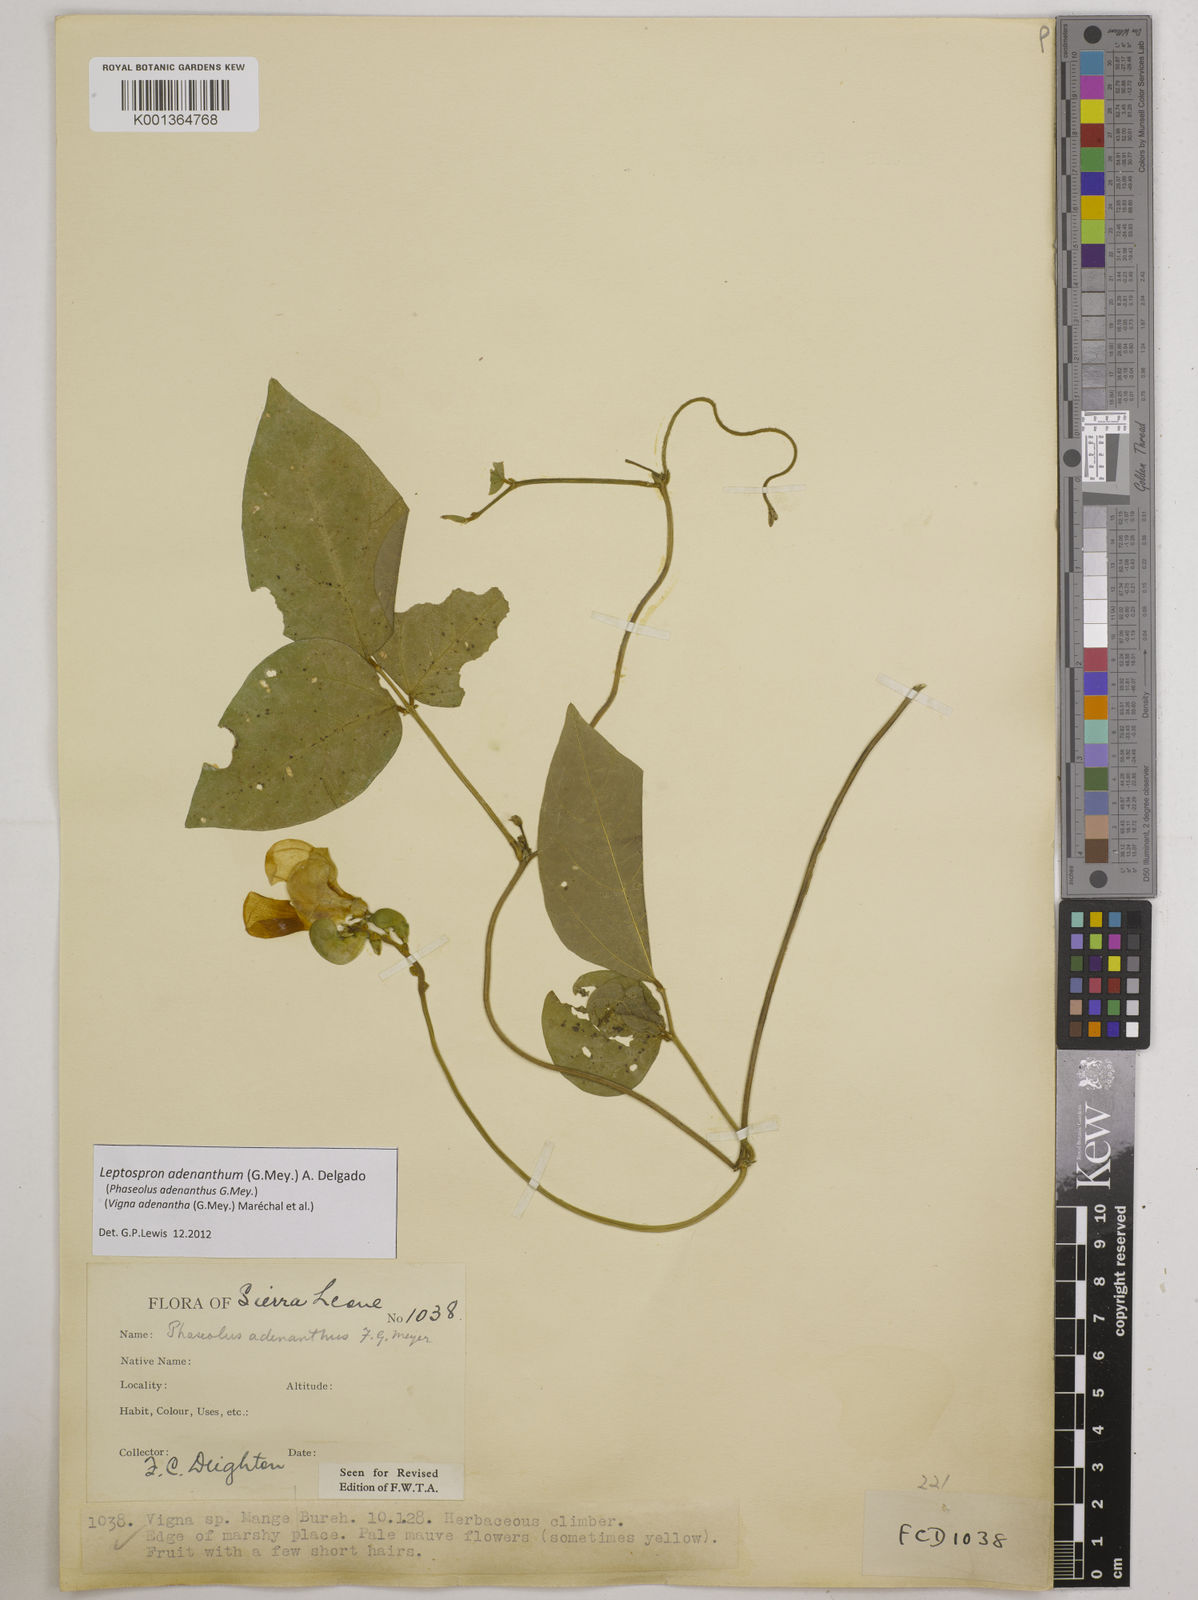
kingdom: Plantae
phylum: Tracheophyta
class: Magnoliopsida
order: Fabales
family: Fabaceae
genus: Leptospron
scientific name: Leptospron adenanthum
